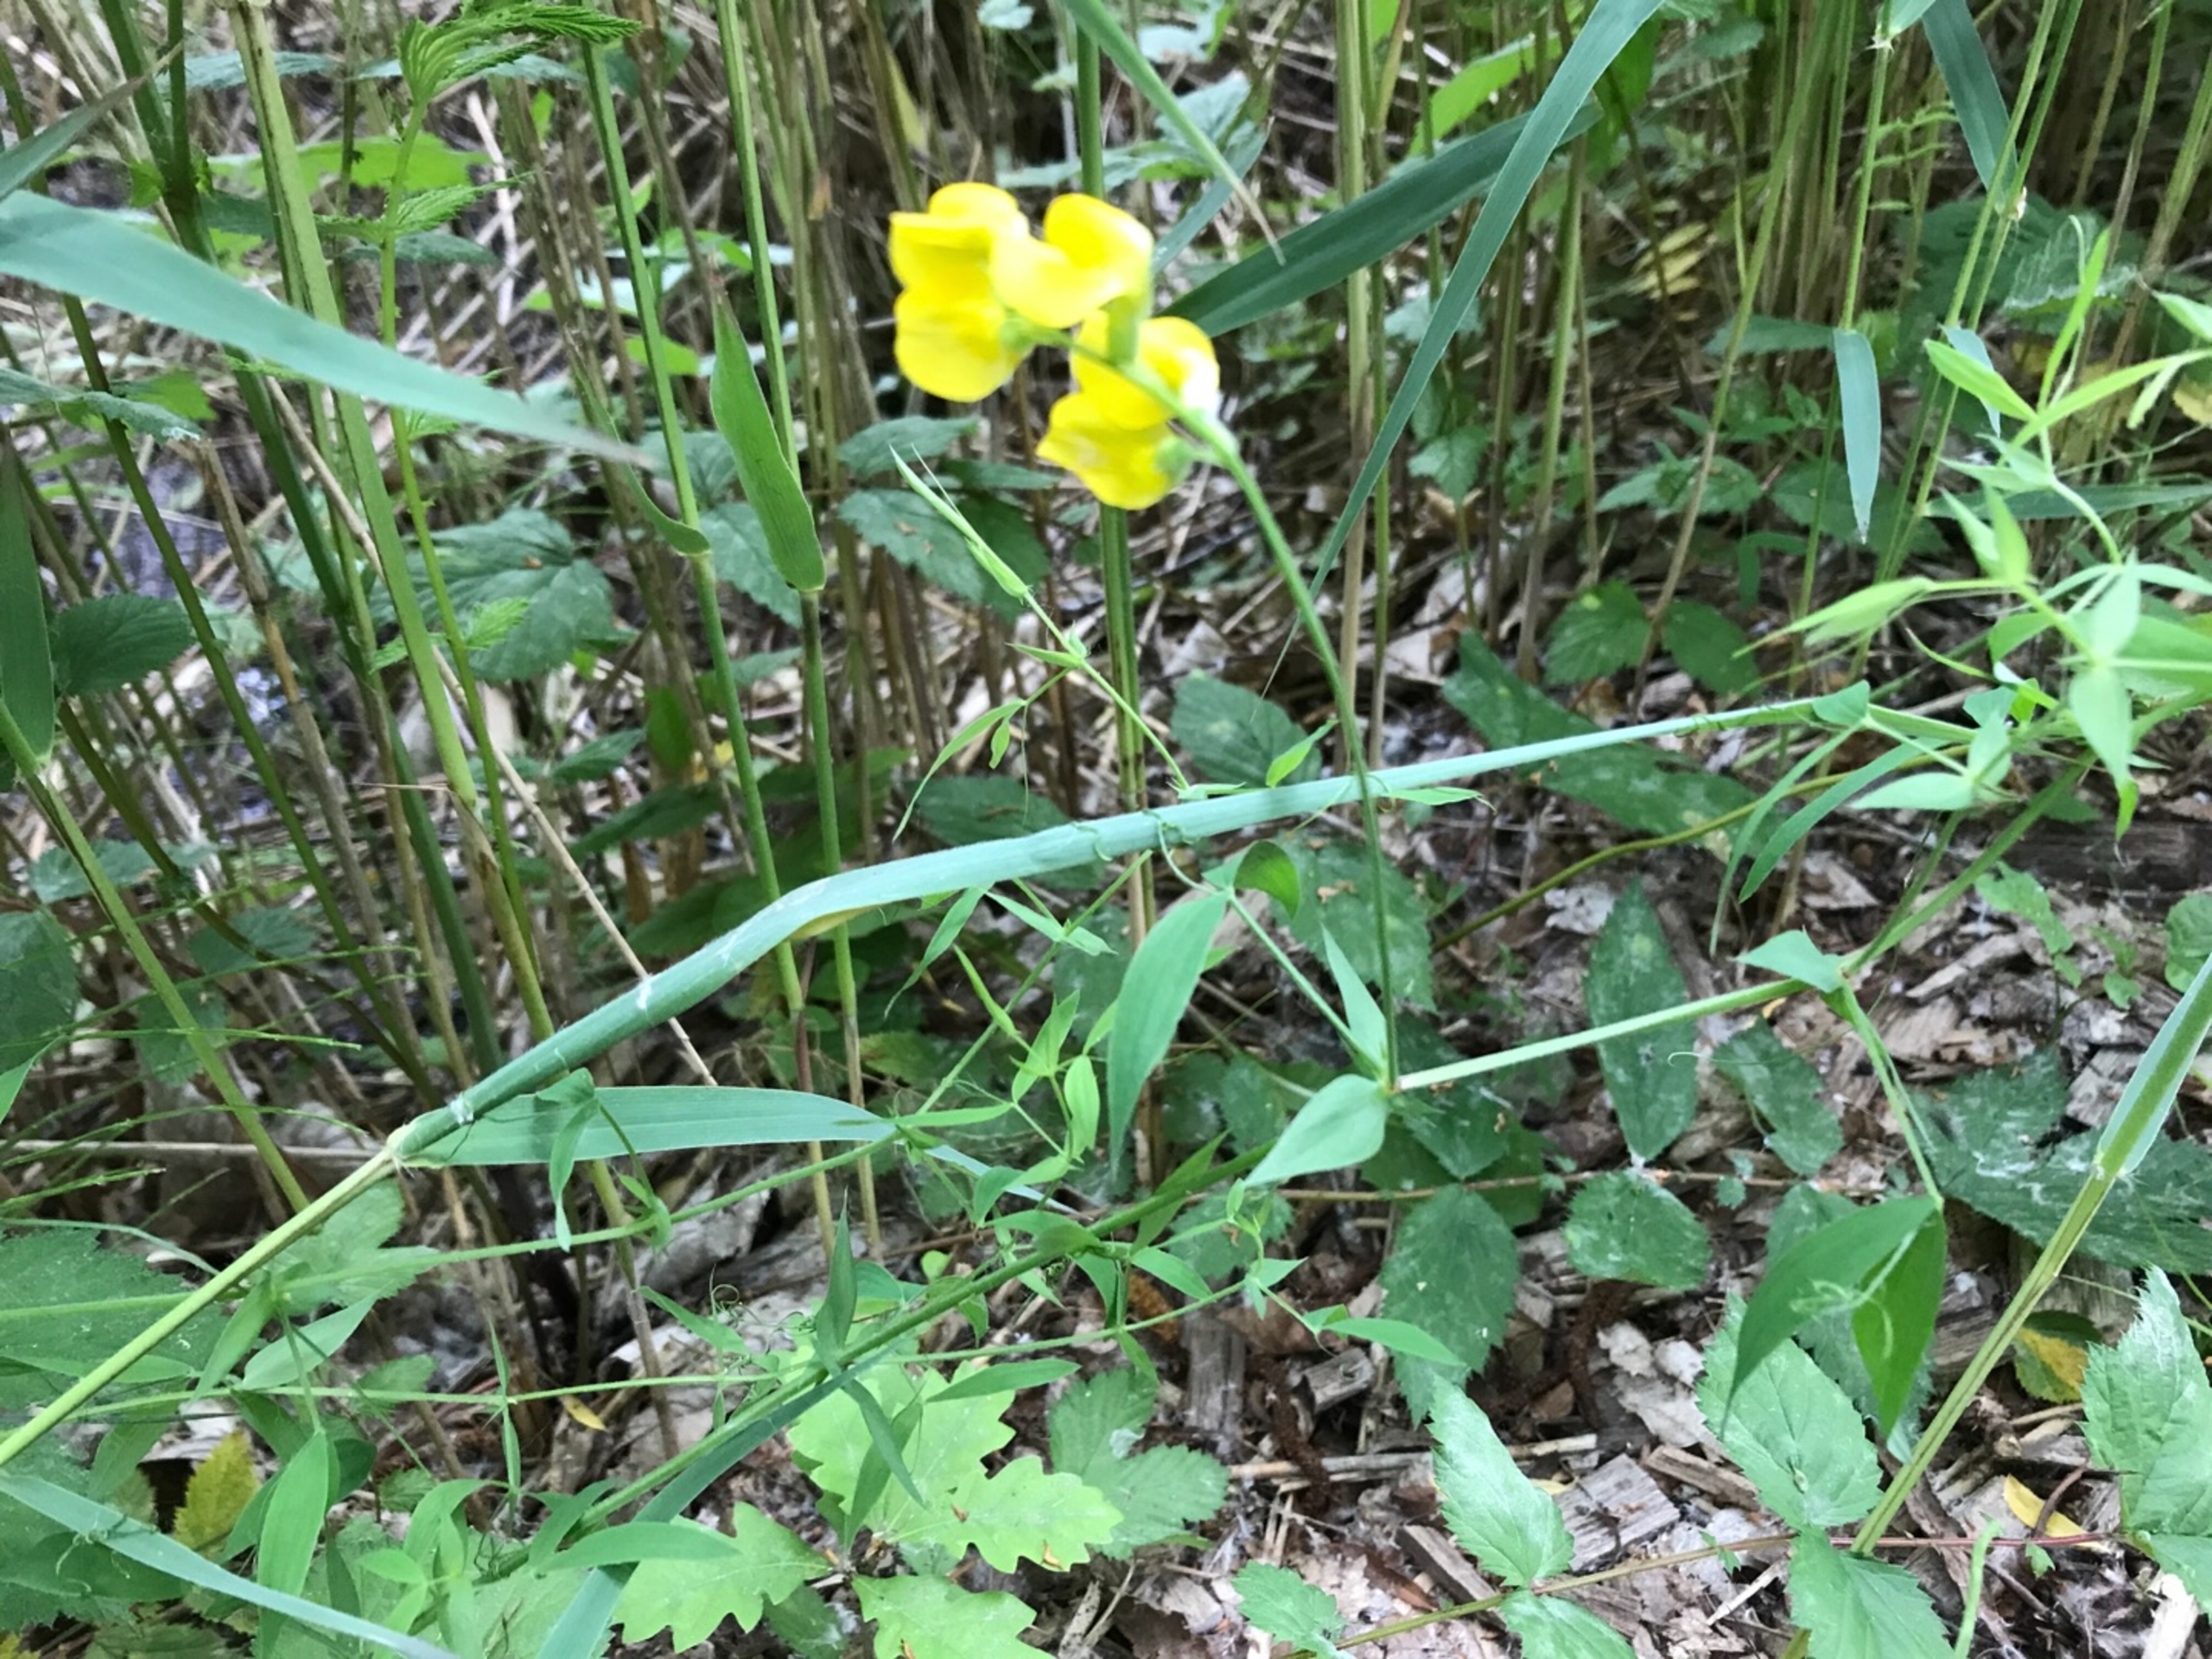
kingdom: Plantae
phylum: Tracheophyta
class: Magnoliopsida
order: Fabales
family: Fabaceae
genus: Lathyrus
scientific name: Lathyrus pratensis
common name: Gul fladbælg
